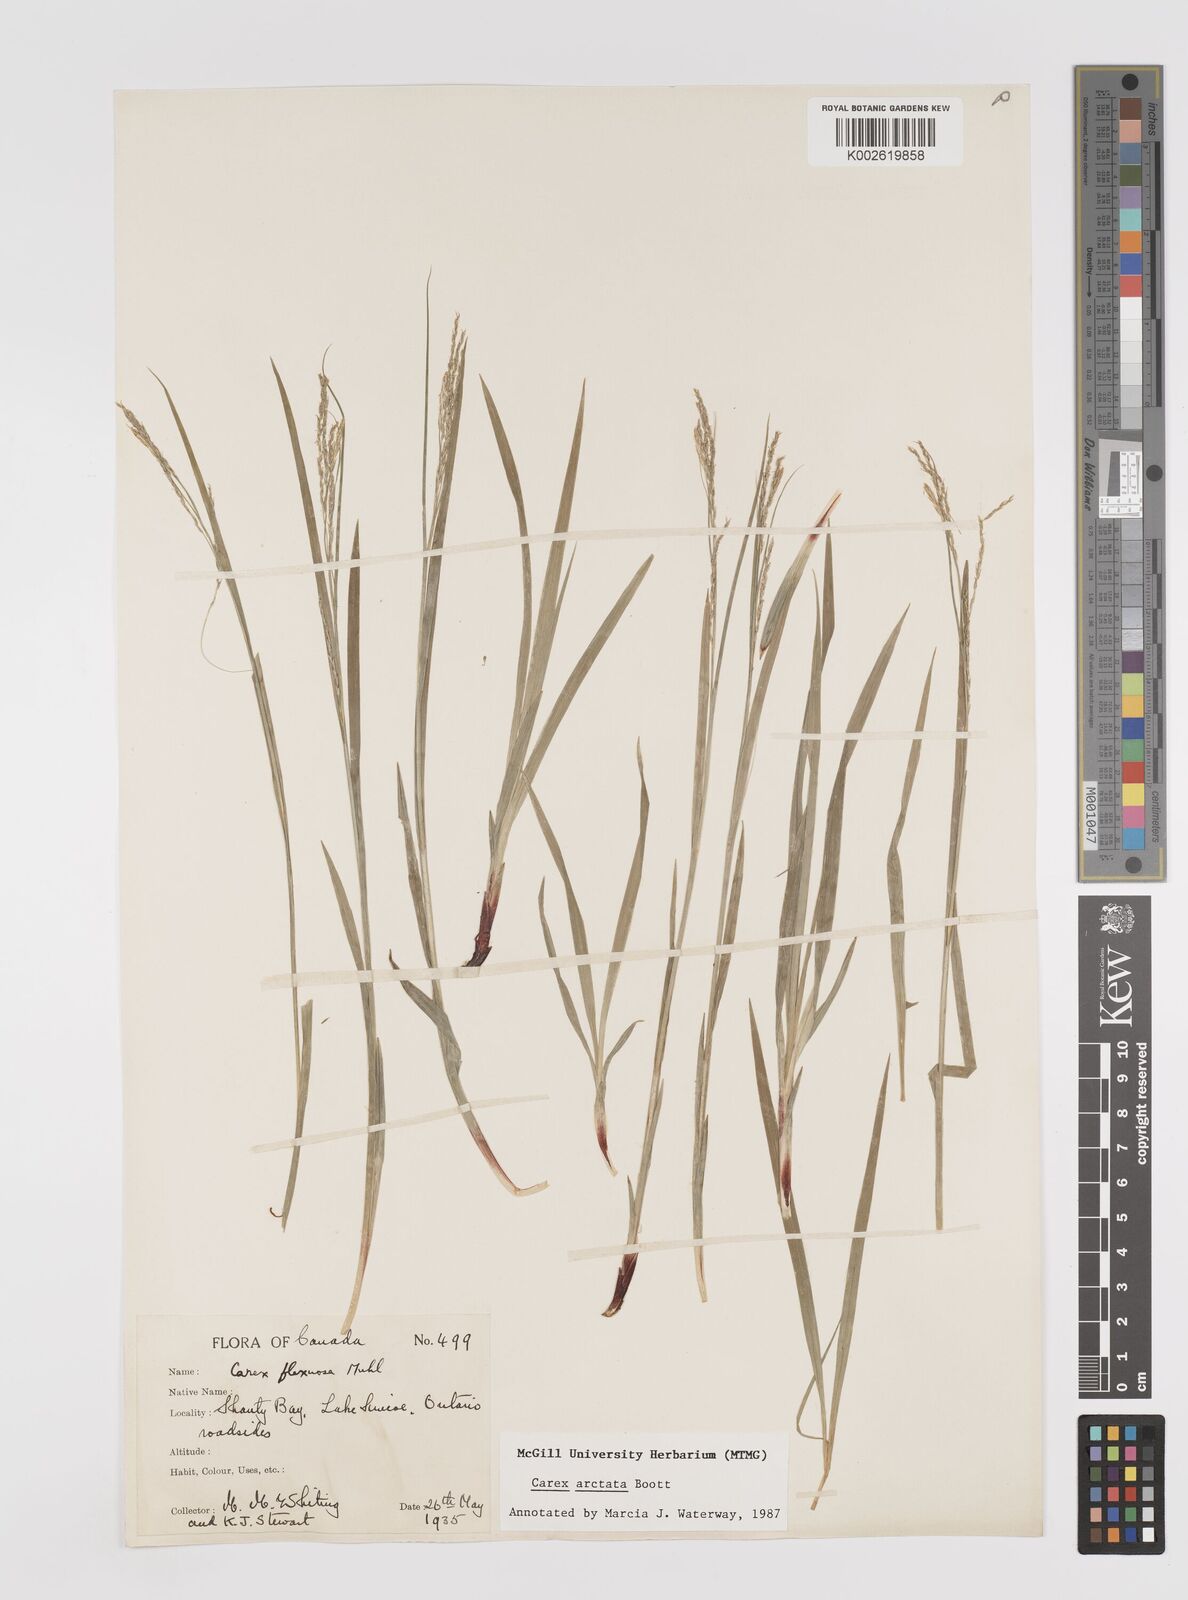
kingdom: Plantae
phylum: Tracheophyta
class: Liliopsida
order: Poales
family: Cyperaceae
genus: Carex
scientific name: Carex arctata
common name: Black sedge
